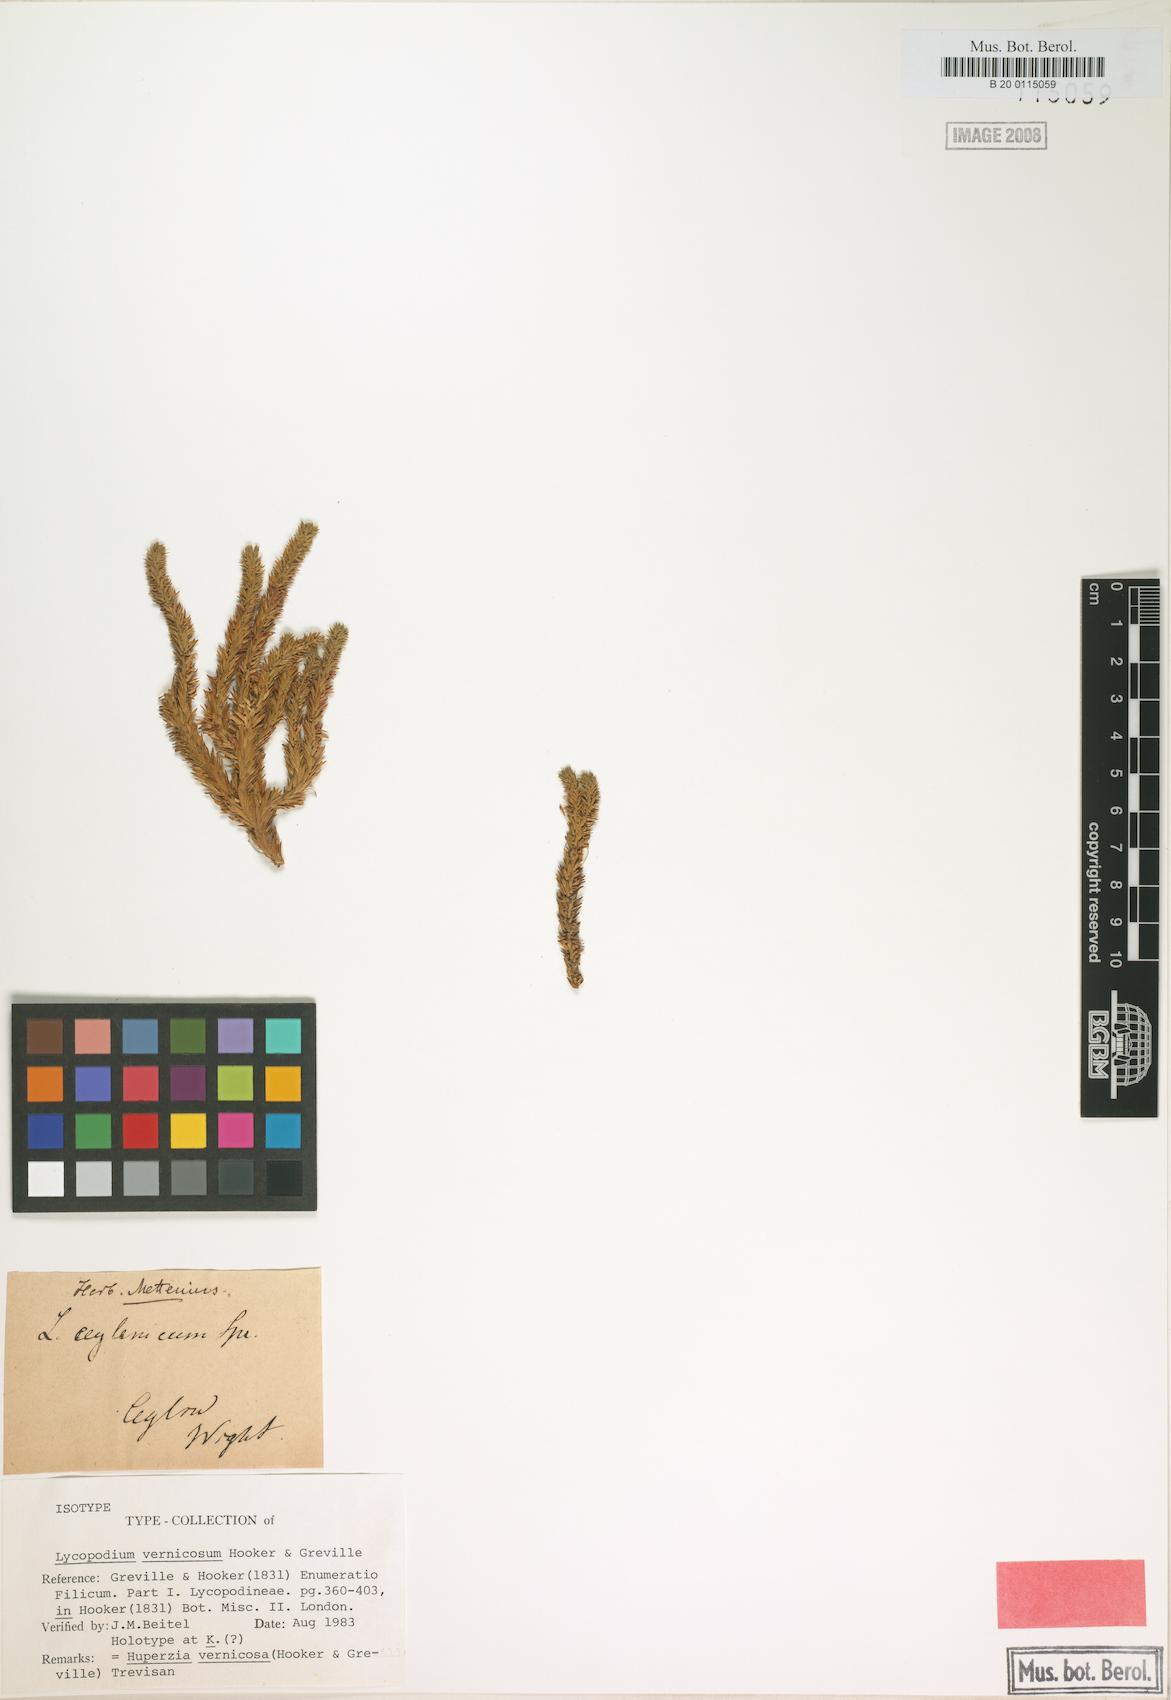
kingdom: Plantae
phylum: Tracheophyta
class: Lycopodiopsida
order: Lycopodiales
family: Lycopodiaceae
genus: Phlegmariurus
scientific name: Phlegmariurus vernicosus
